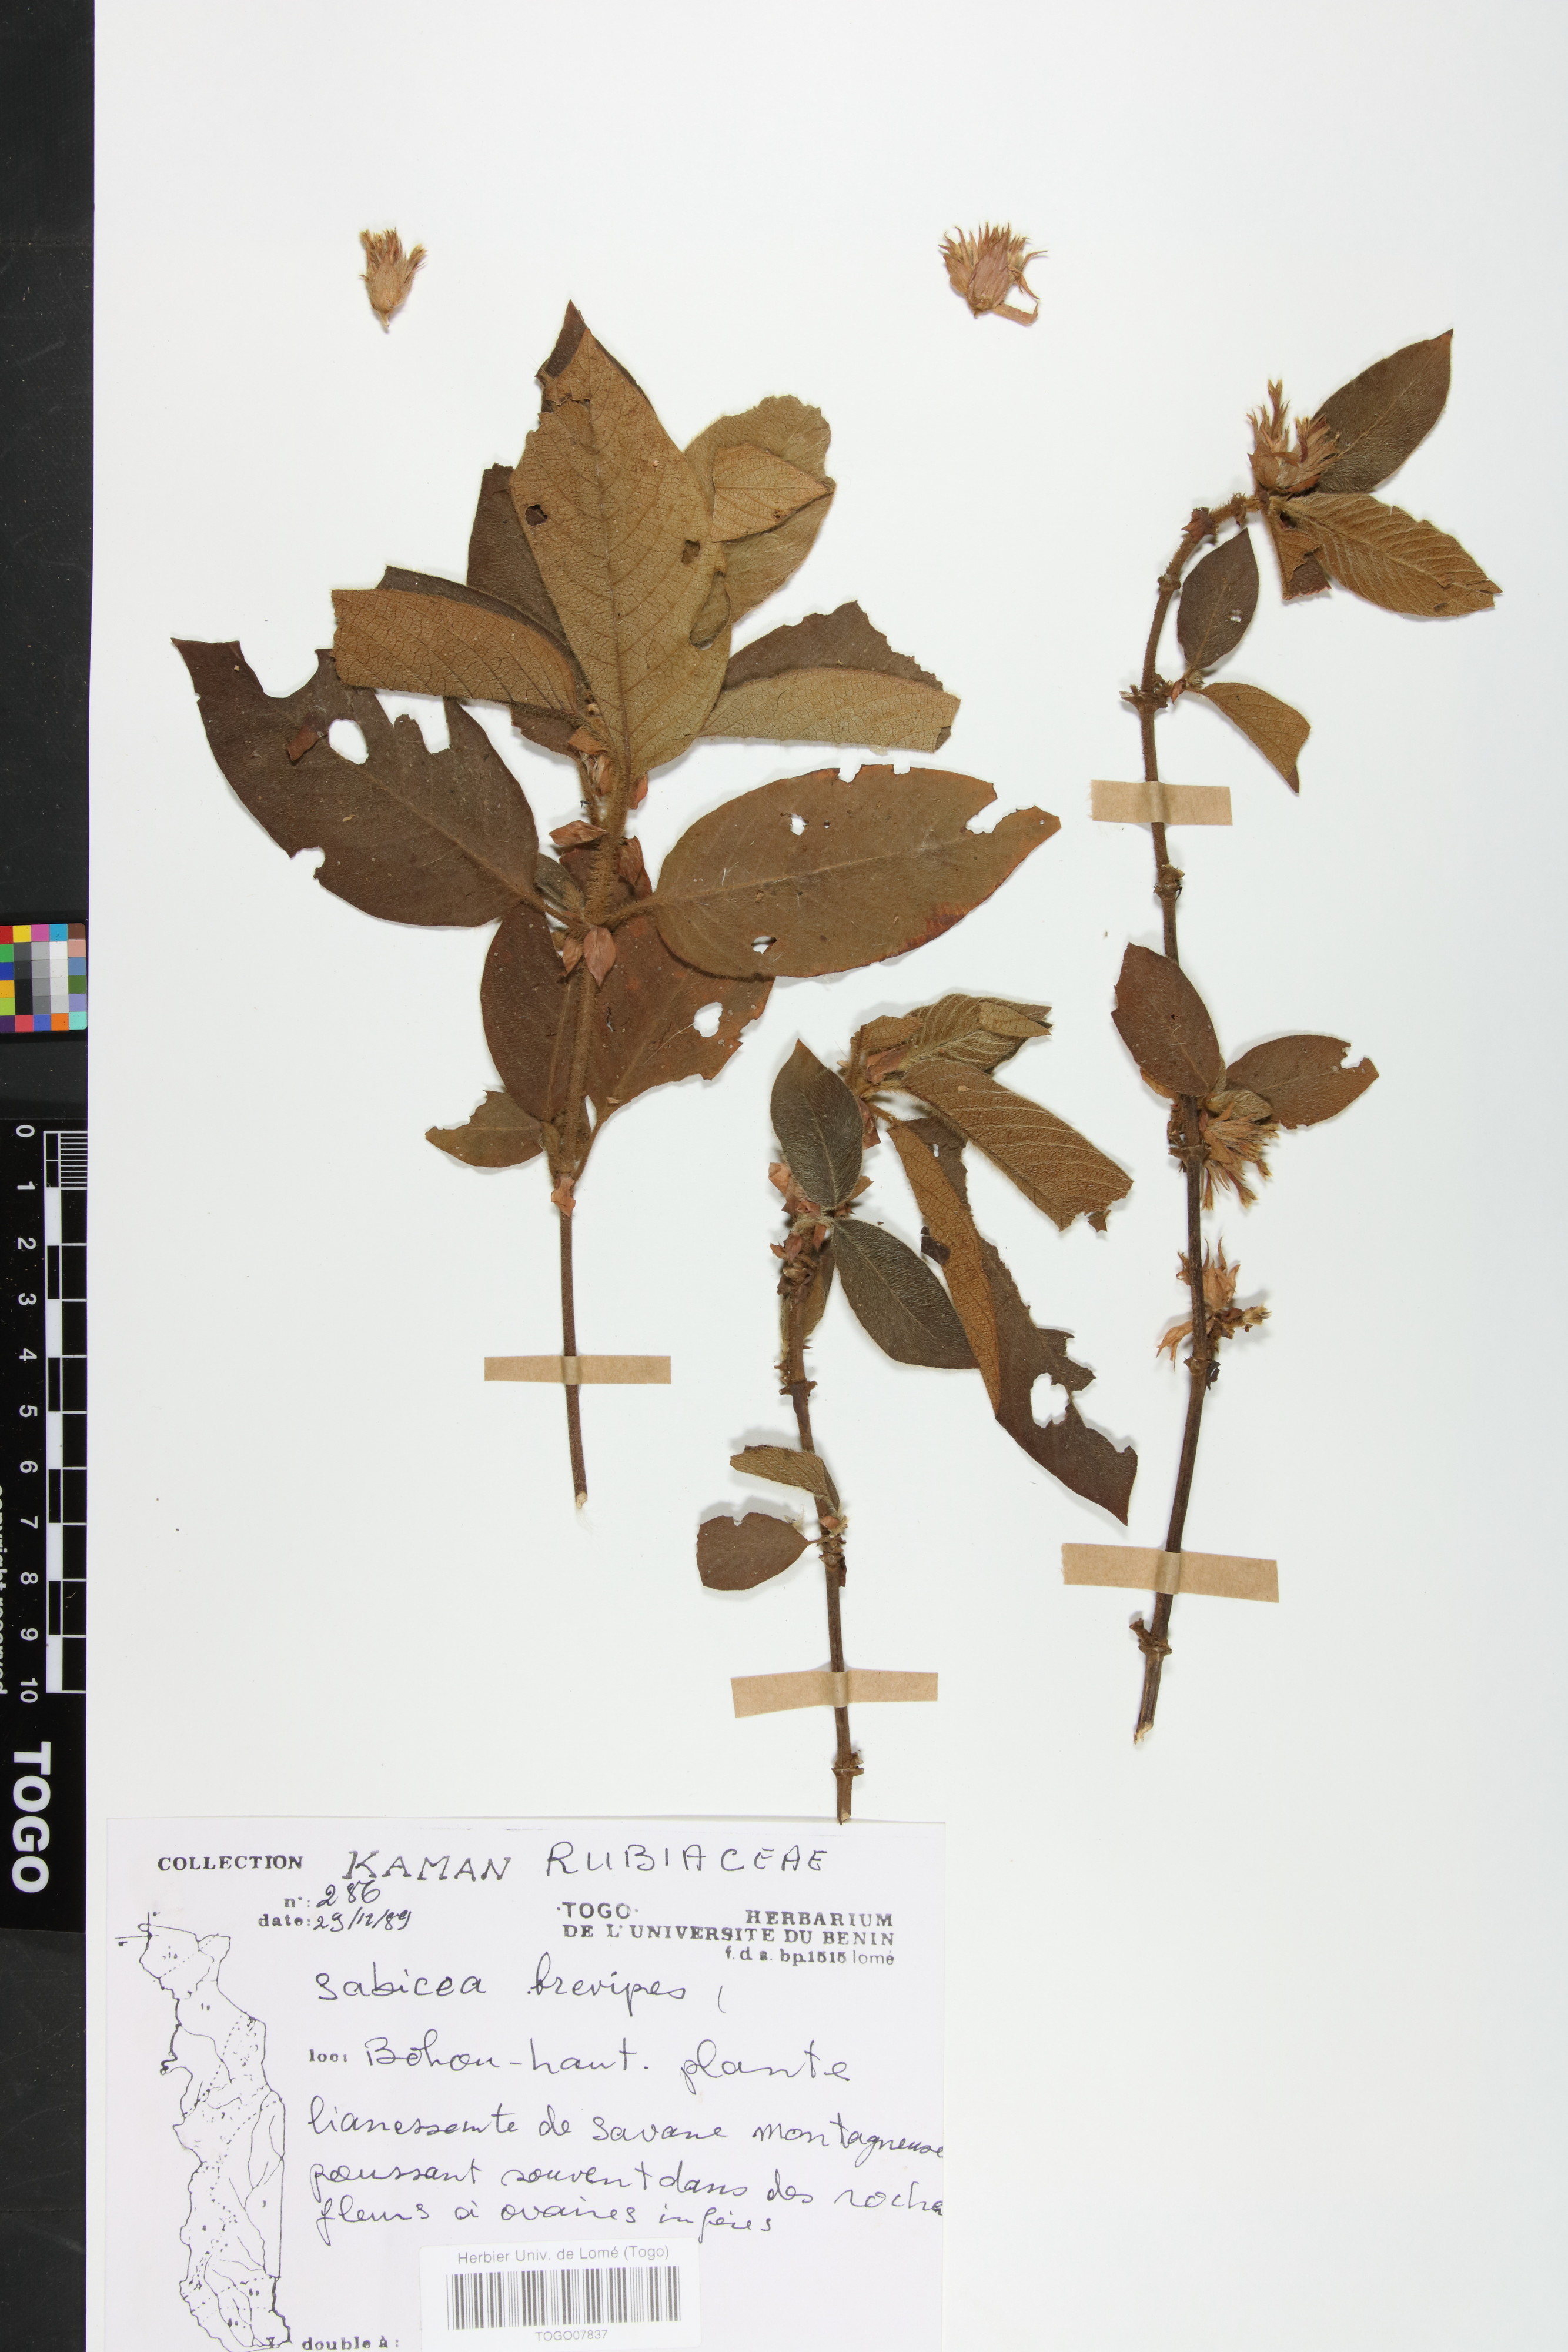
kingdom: Plantae
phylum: Tracheophyta
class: Magnoliopsida
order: Gentianales
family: Rubiaceae
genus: Sabicea
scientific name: Sabicea brevipes
